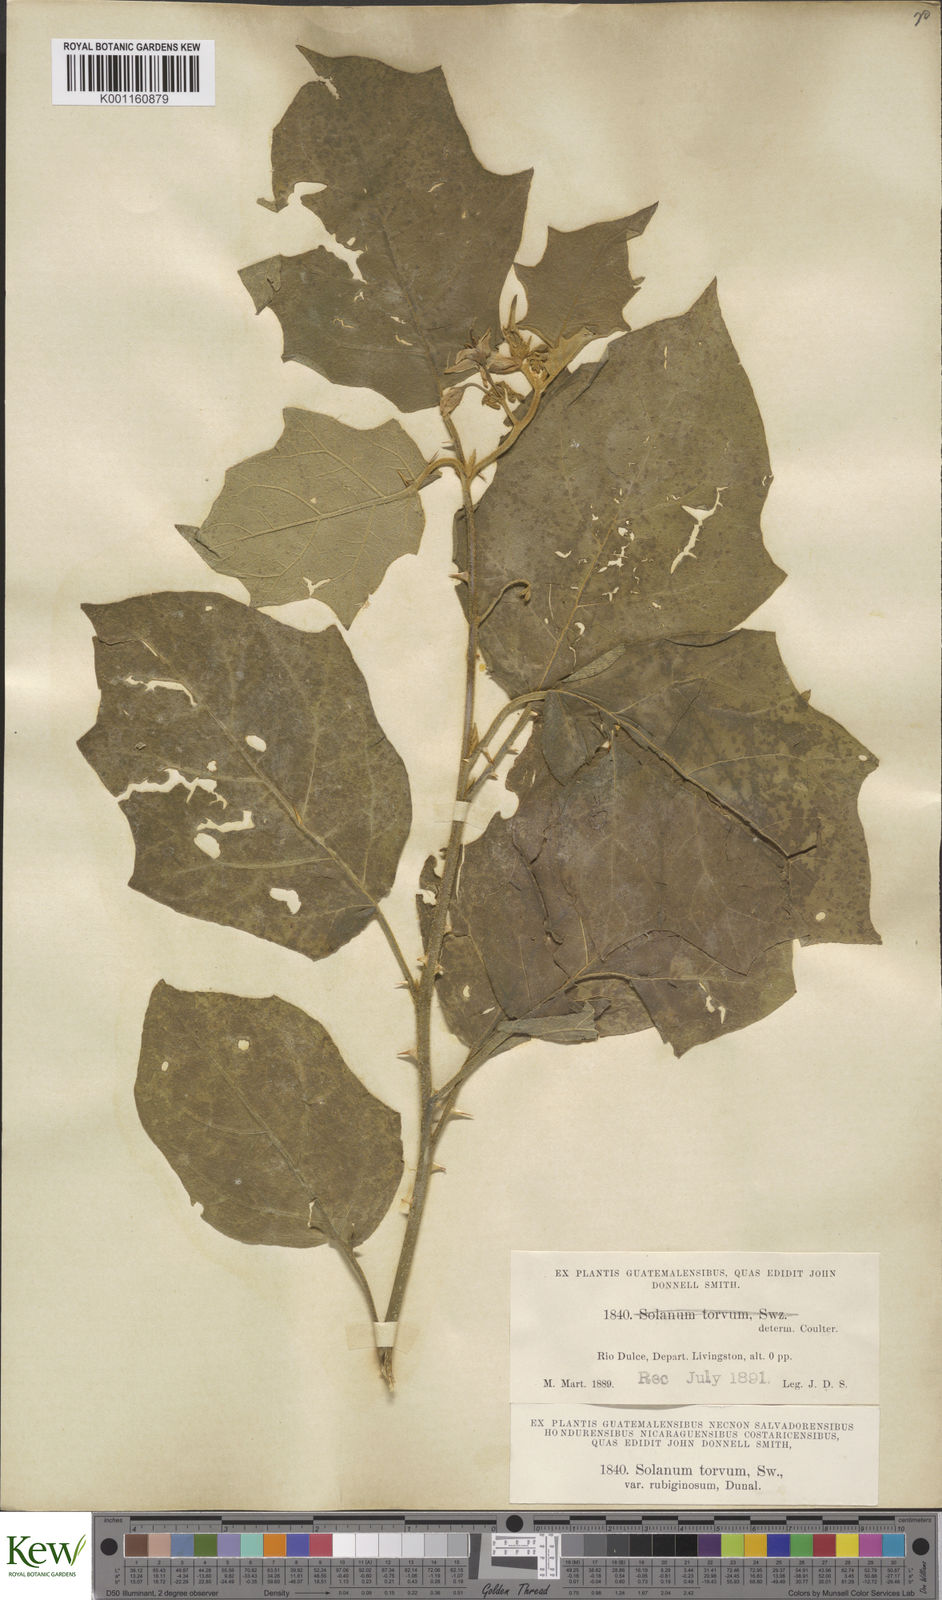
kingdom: Plantae
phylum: Tracheophyta
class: Magnoliopsida
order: Solanales
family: Solanaceae
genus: Solanum
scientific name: Solanum torvum
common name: Turkey berry
